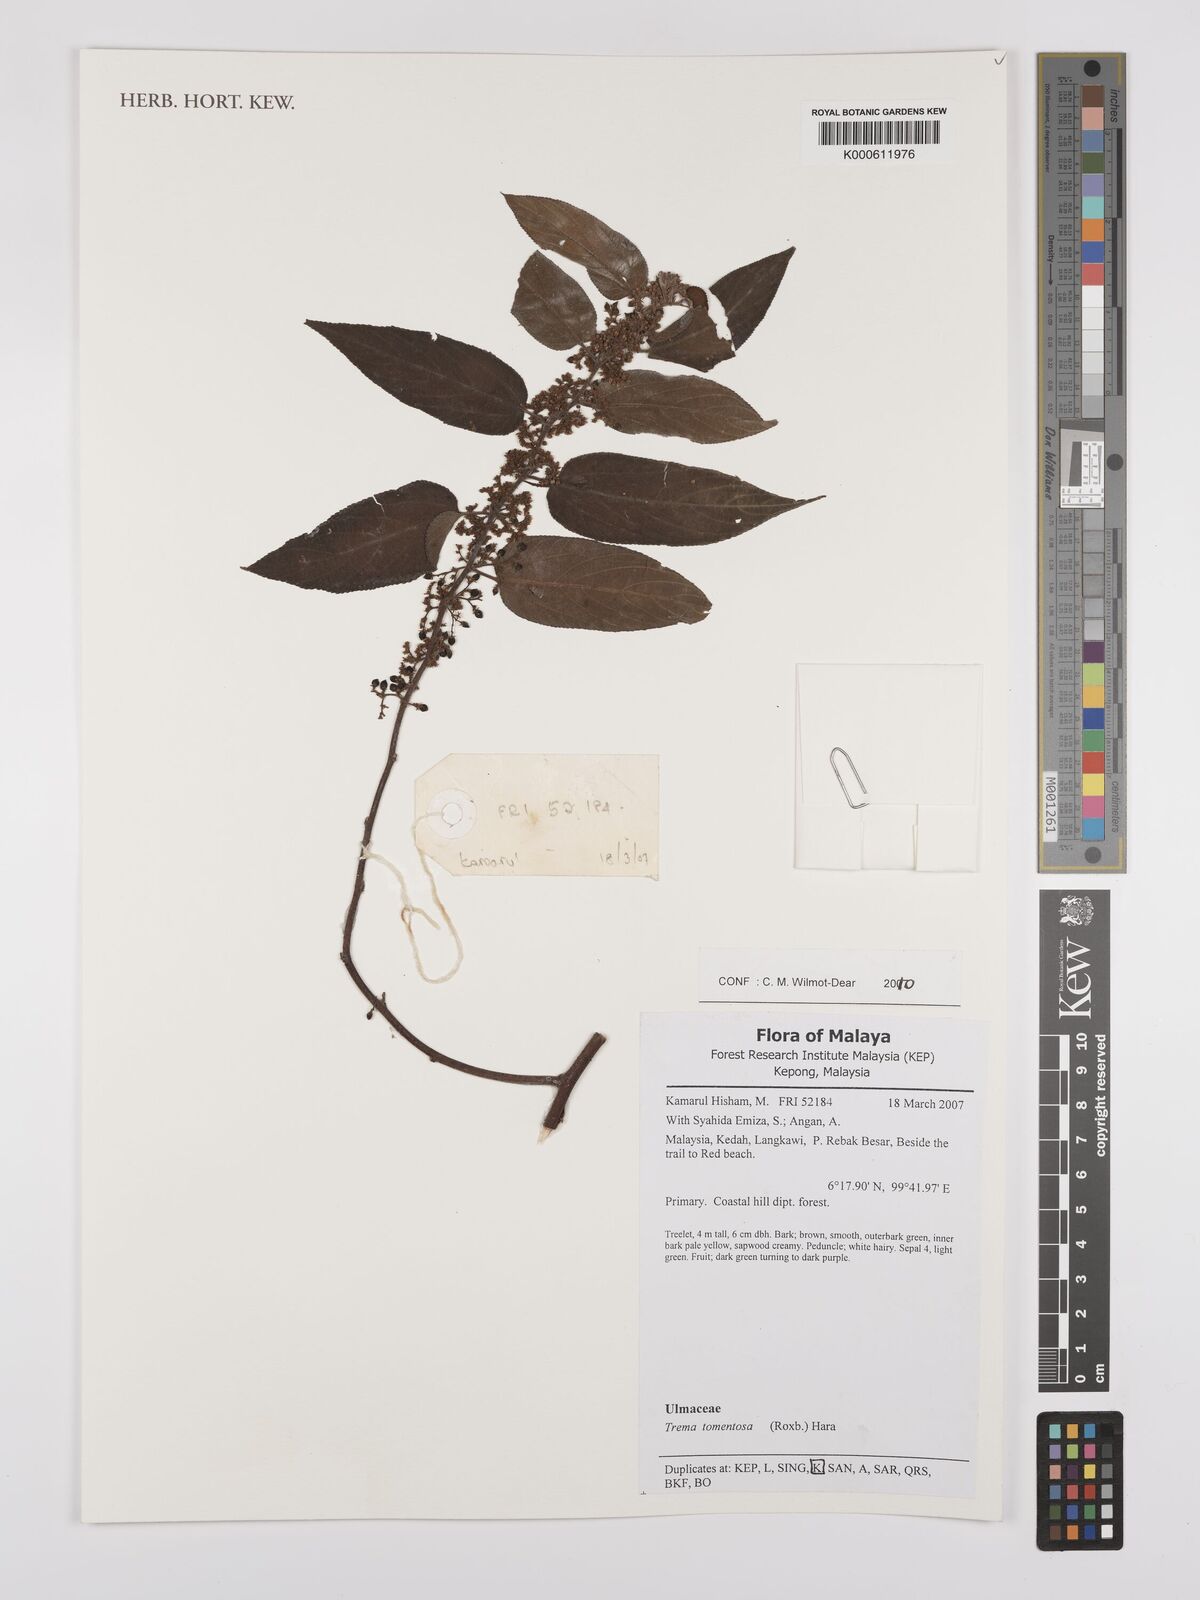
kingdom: Plantae
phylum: Tracheophyta
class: Magnoliopsida
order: Rosales
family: Cannabaceae
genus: Trema
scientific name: Trema tomentosum
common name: Peach-leaf-poisonbush
